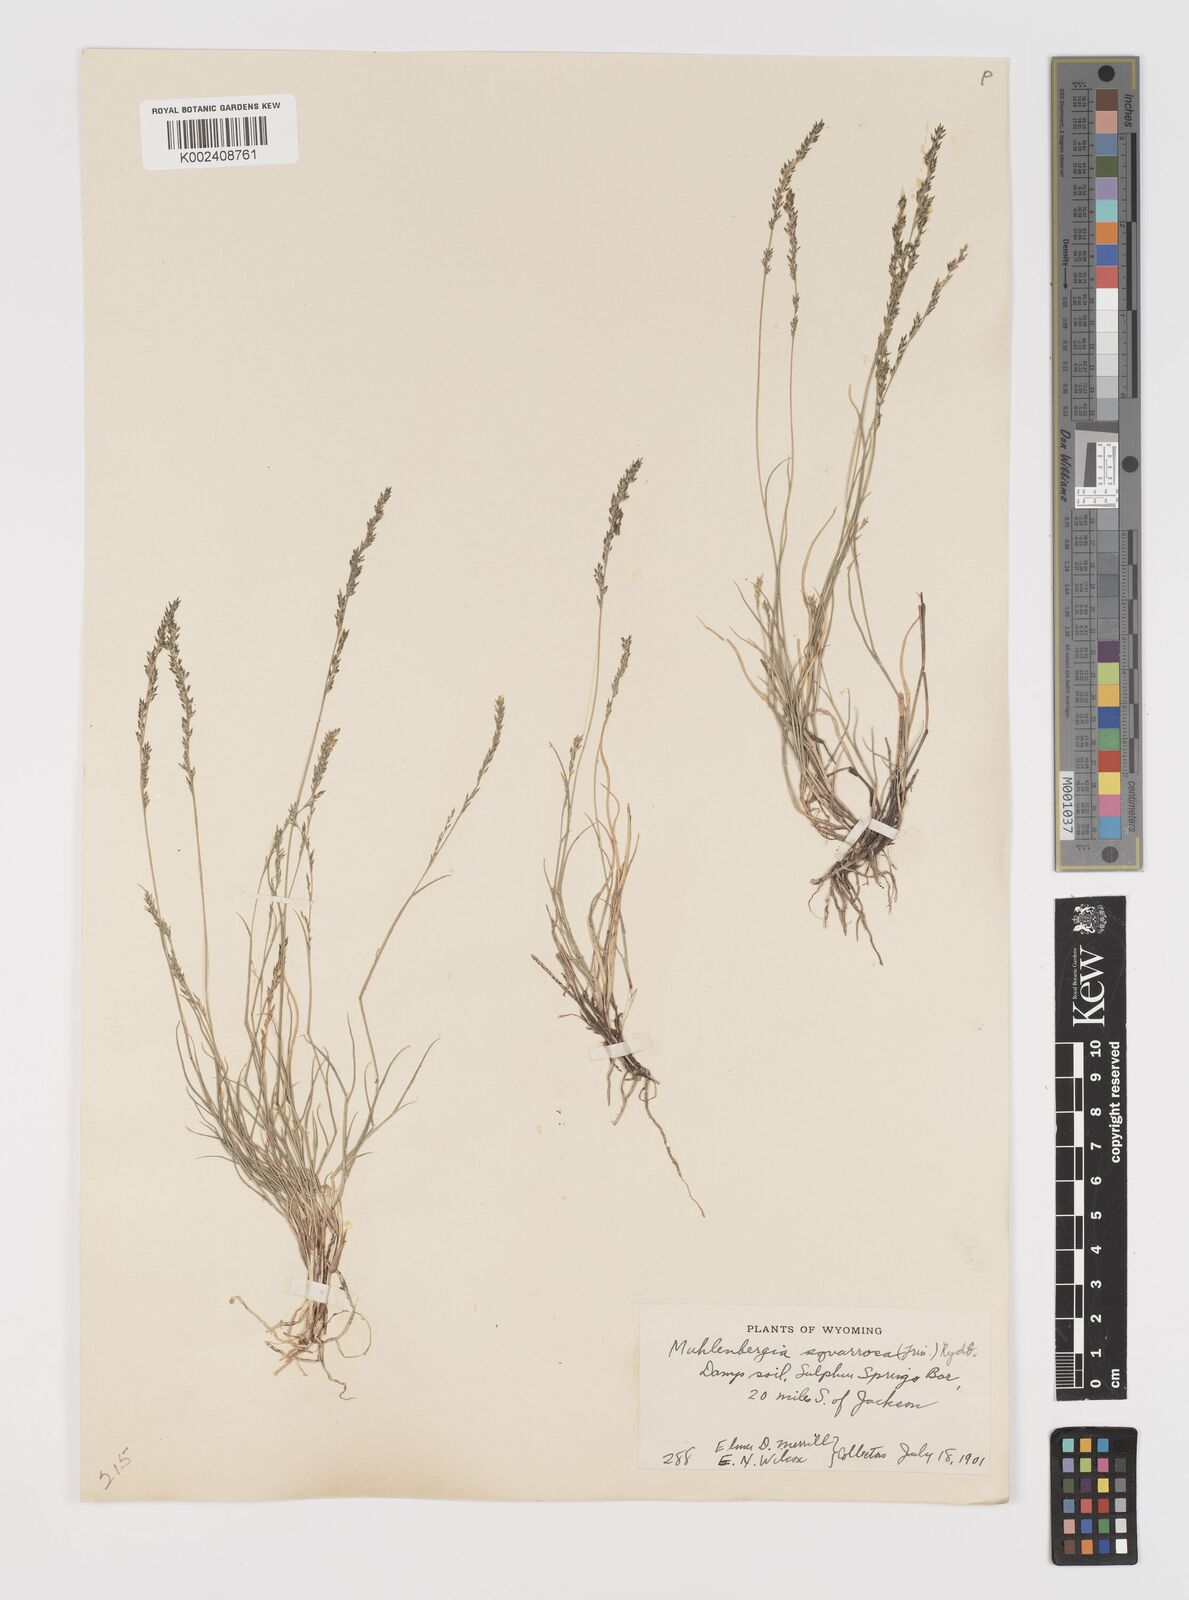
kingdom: Plantae
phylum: Tracheophyta
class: Liliopsida
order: Poales
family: Poaceae
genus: Muhlenbergia
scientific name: Muhlenbergia richardsonis
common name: Mat muhly
